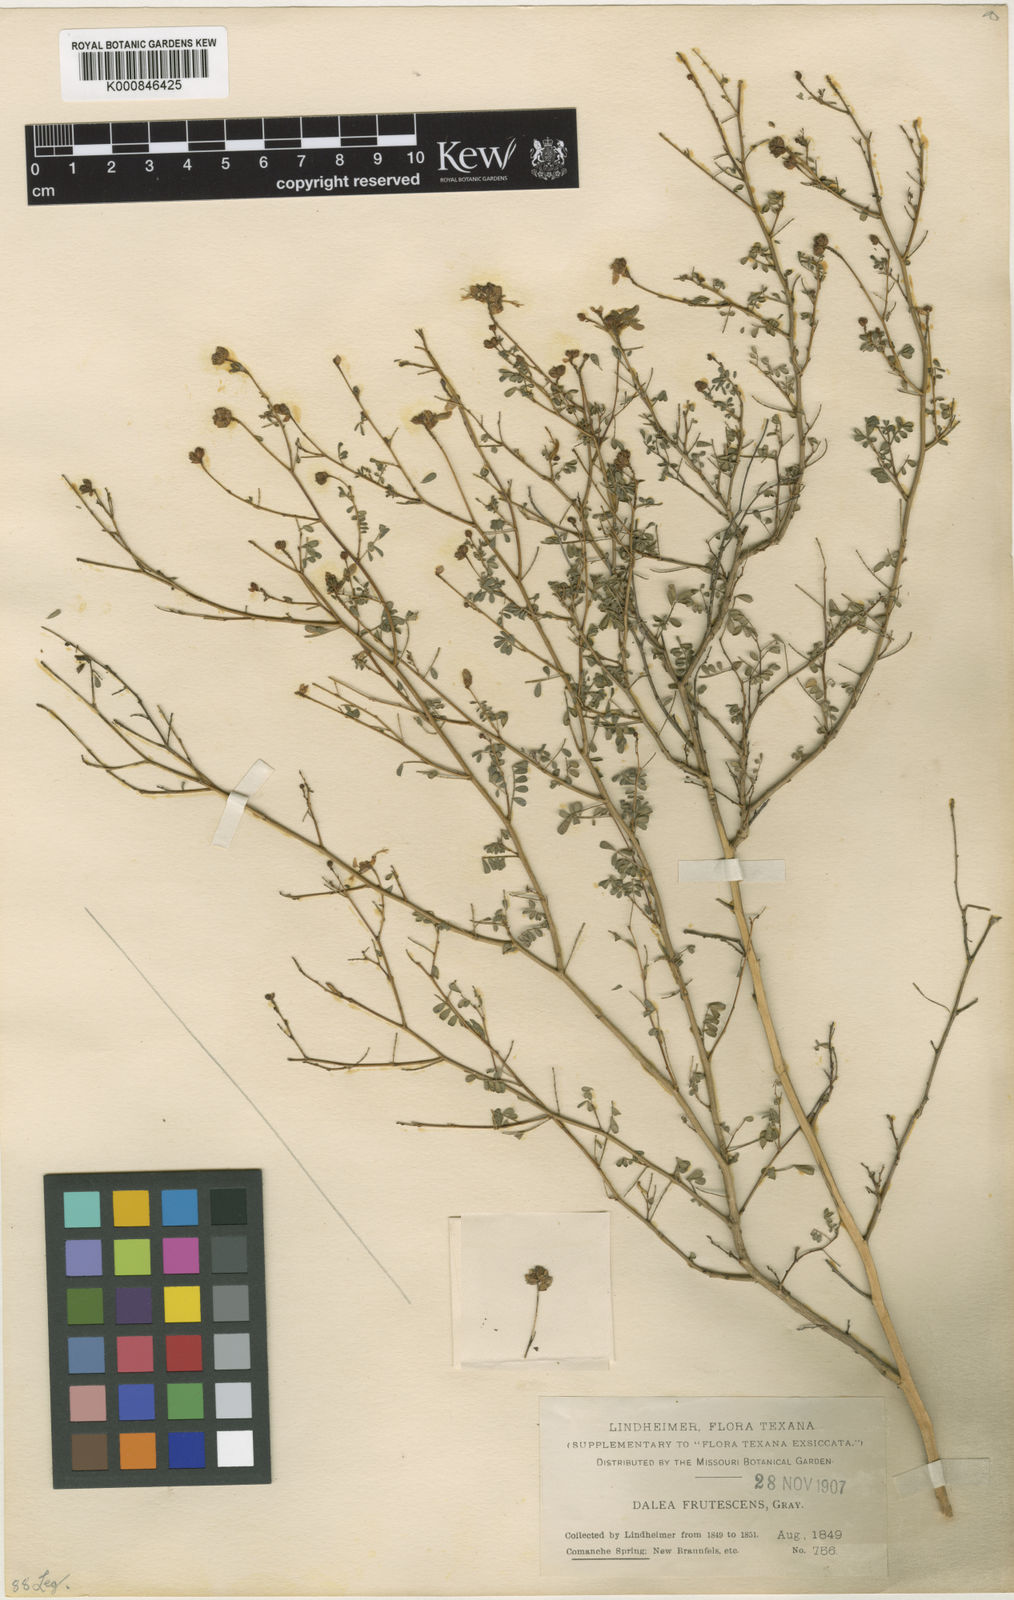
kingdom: Plantae
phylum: Tracheophyta
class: Magnoliopsida
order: Fabales
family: Fabaceae
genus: Dalea
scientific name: Dalea frutescens
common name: Black dalea
